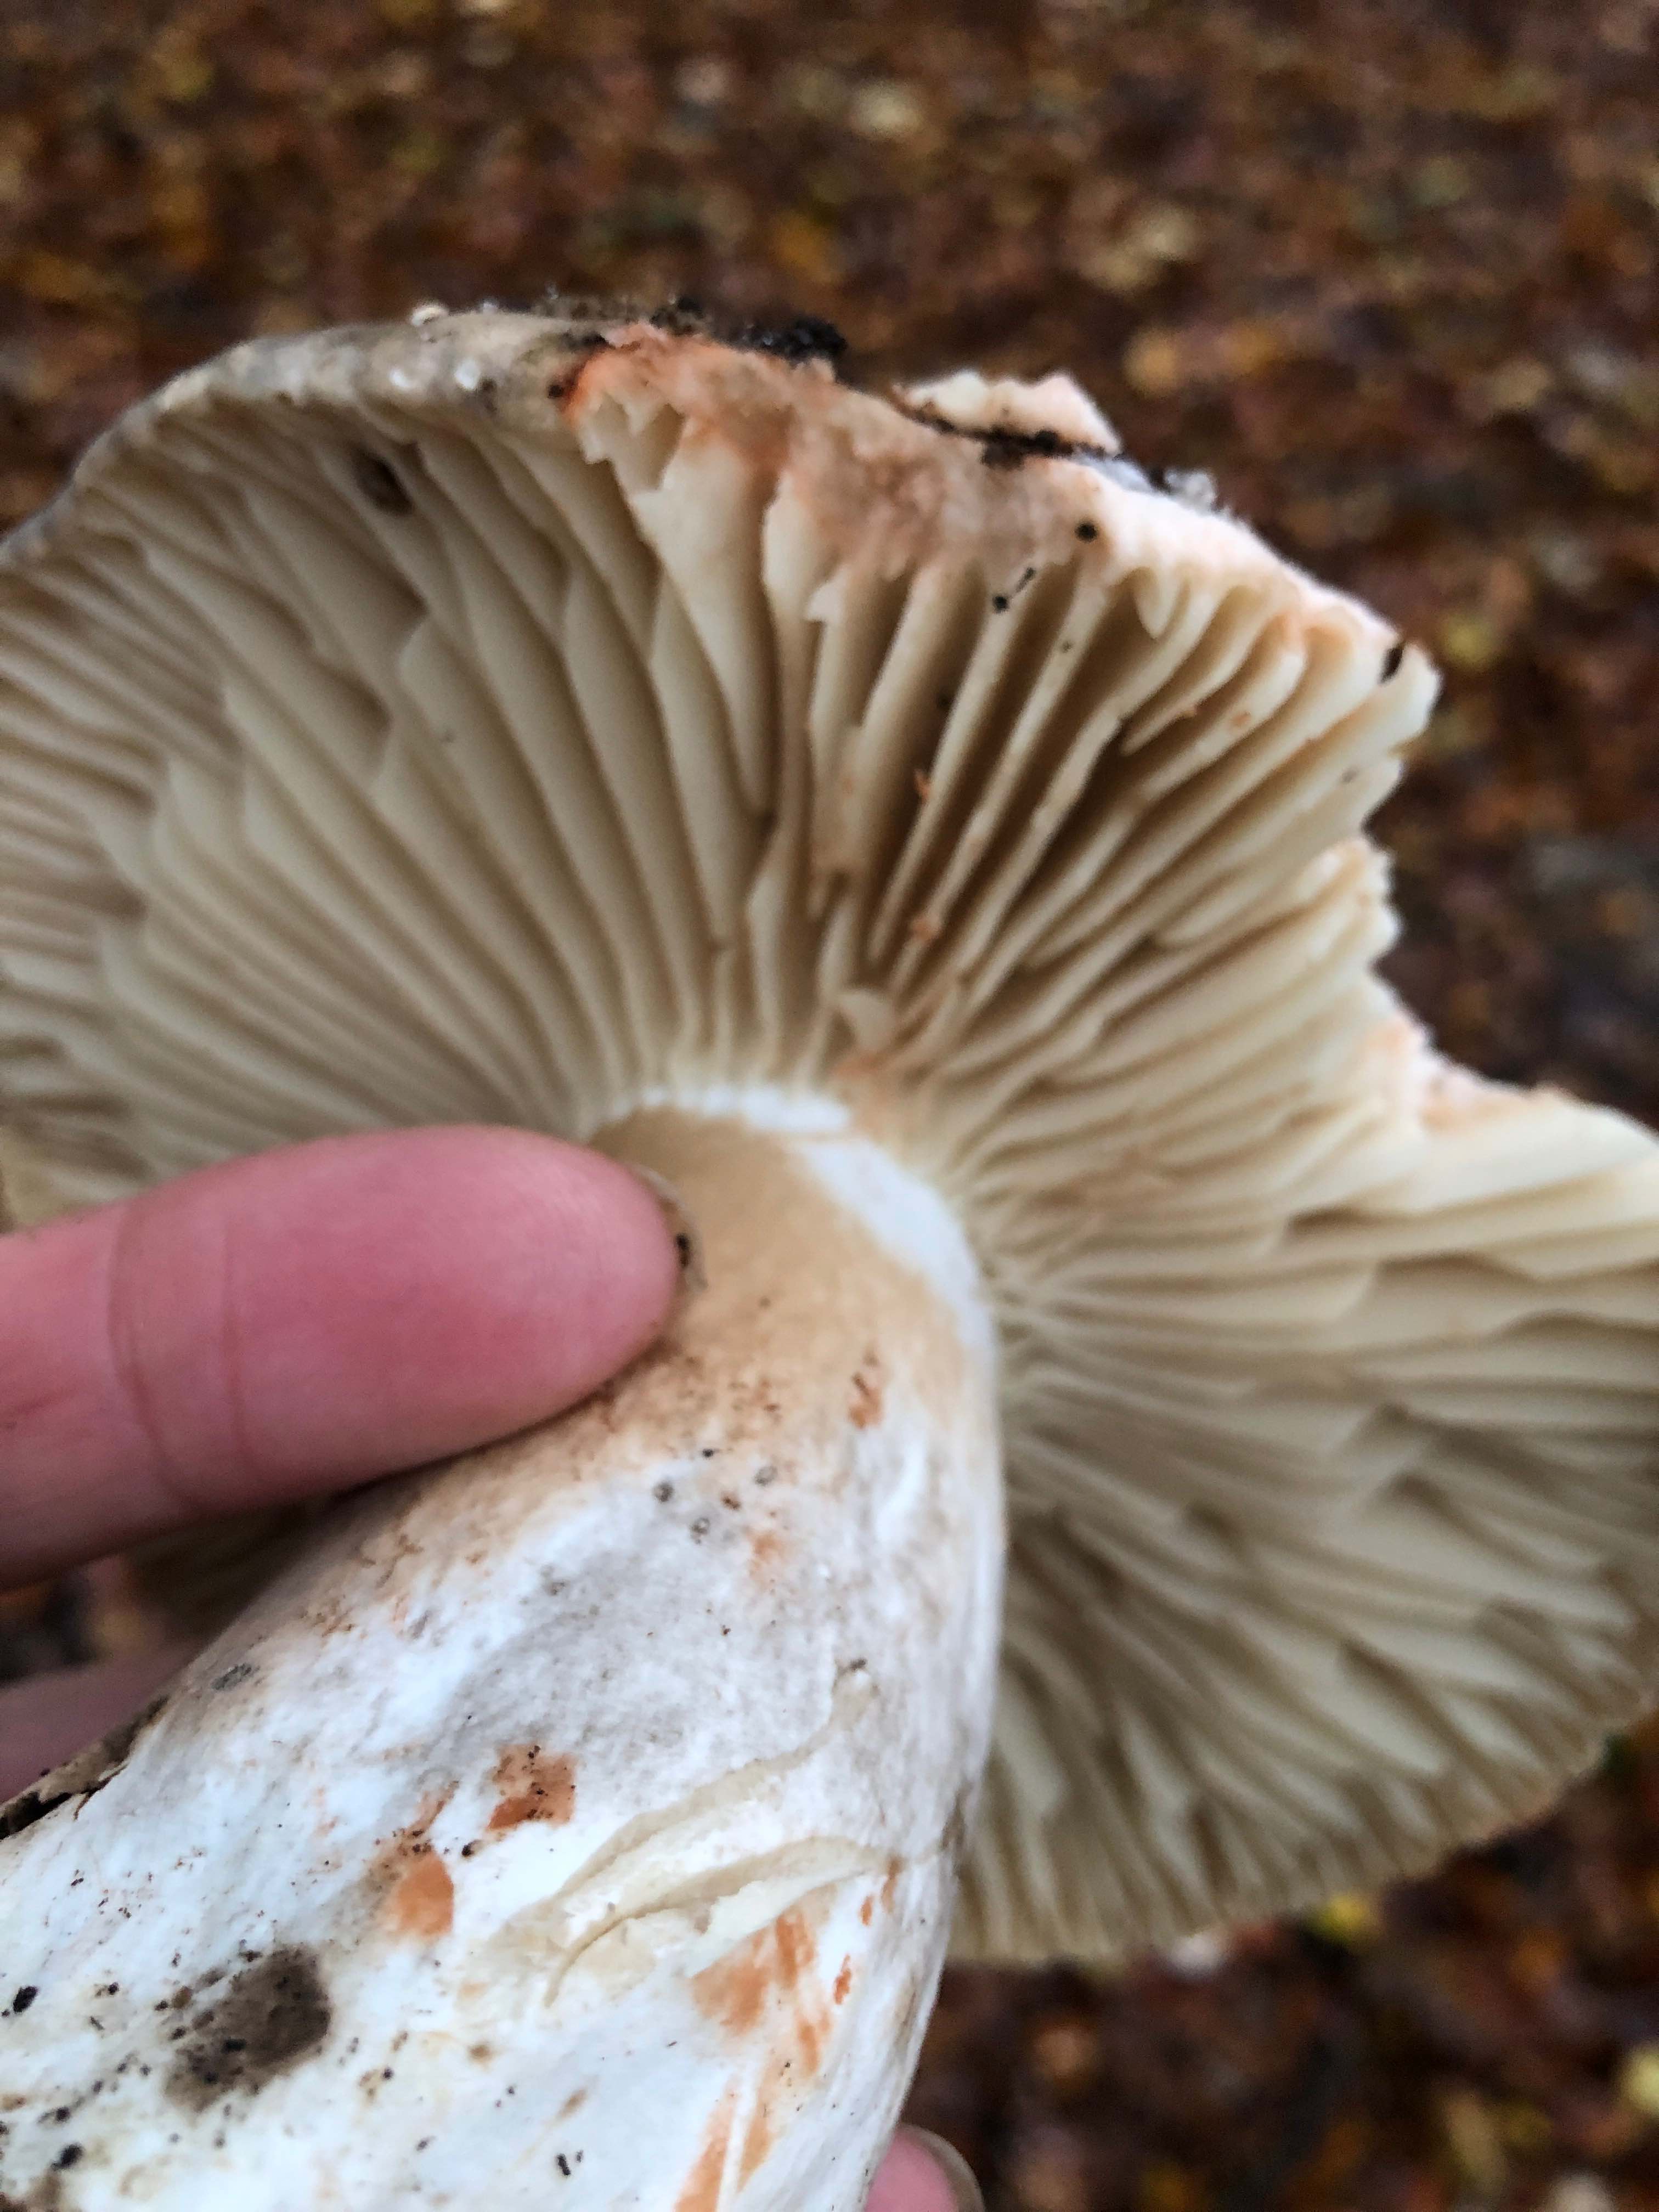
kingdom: Fungi
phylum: Basidiomycota
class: Agaricomycetes
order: Russulales
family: Russulaceae
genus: Russula
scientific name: Russula adusta
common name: sværtende skørhat
